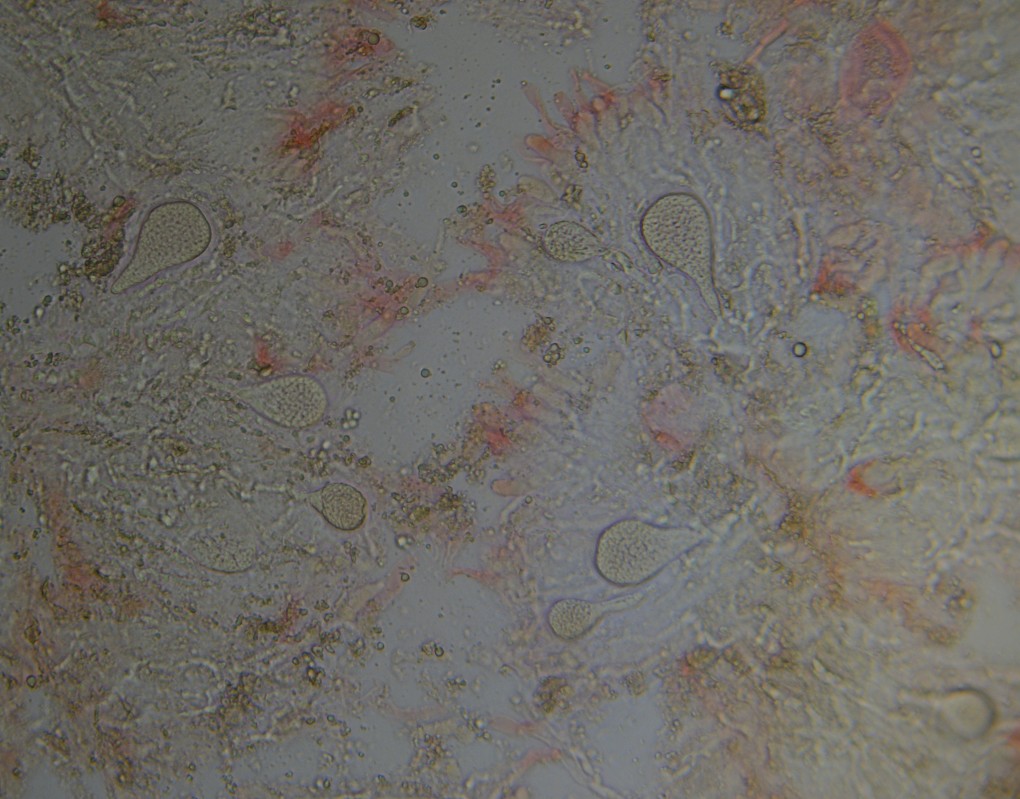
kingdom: Fungi
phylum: Basidiomycota
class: Agaricomycetes
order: Russulales
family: Peniophoraceae
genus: Peniophora
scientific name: Peniophora polygonia
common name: polygon-voksskind
